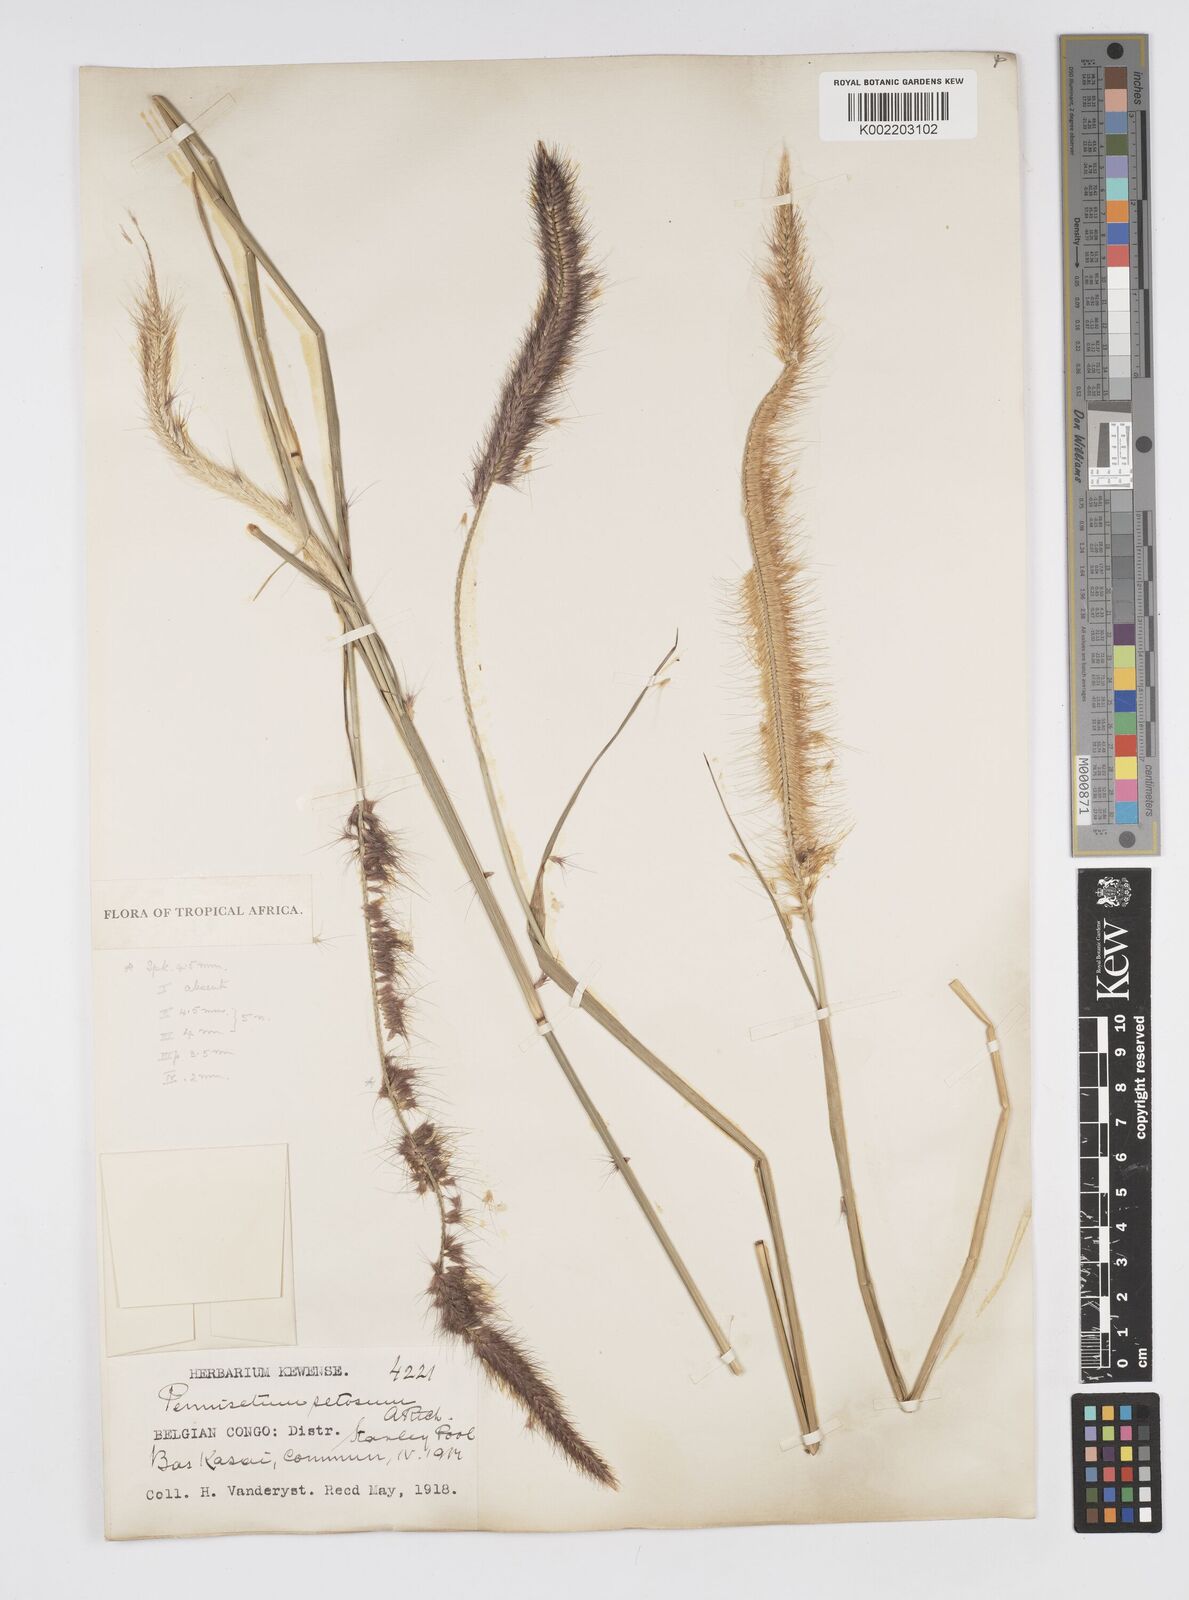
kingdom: Plantae
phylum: Tracheophyta
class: Liliopsida
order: Poales
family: Poaceae
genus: Setaria
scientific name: Setaria parviflora
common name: Knotroot bristle-grass
